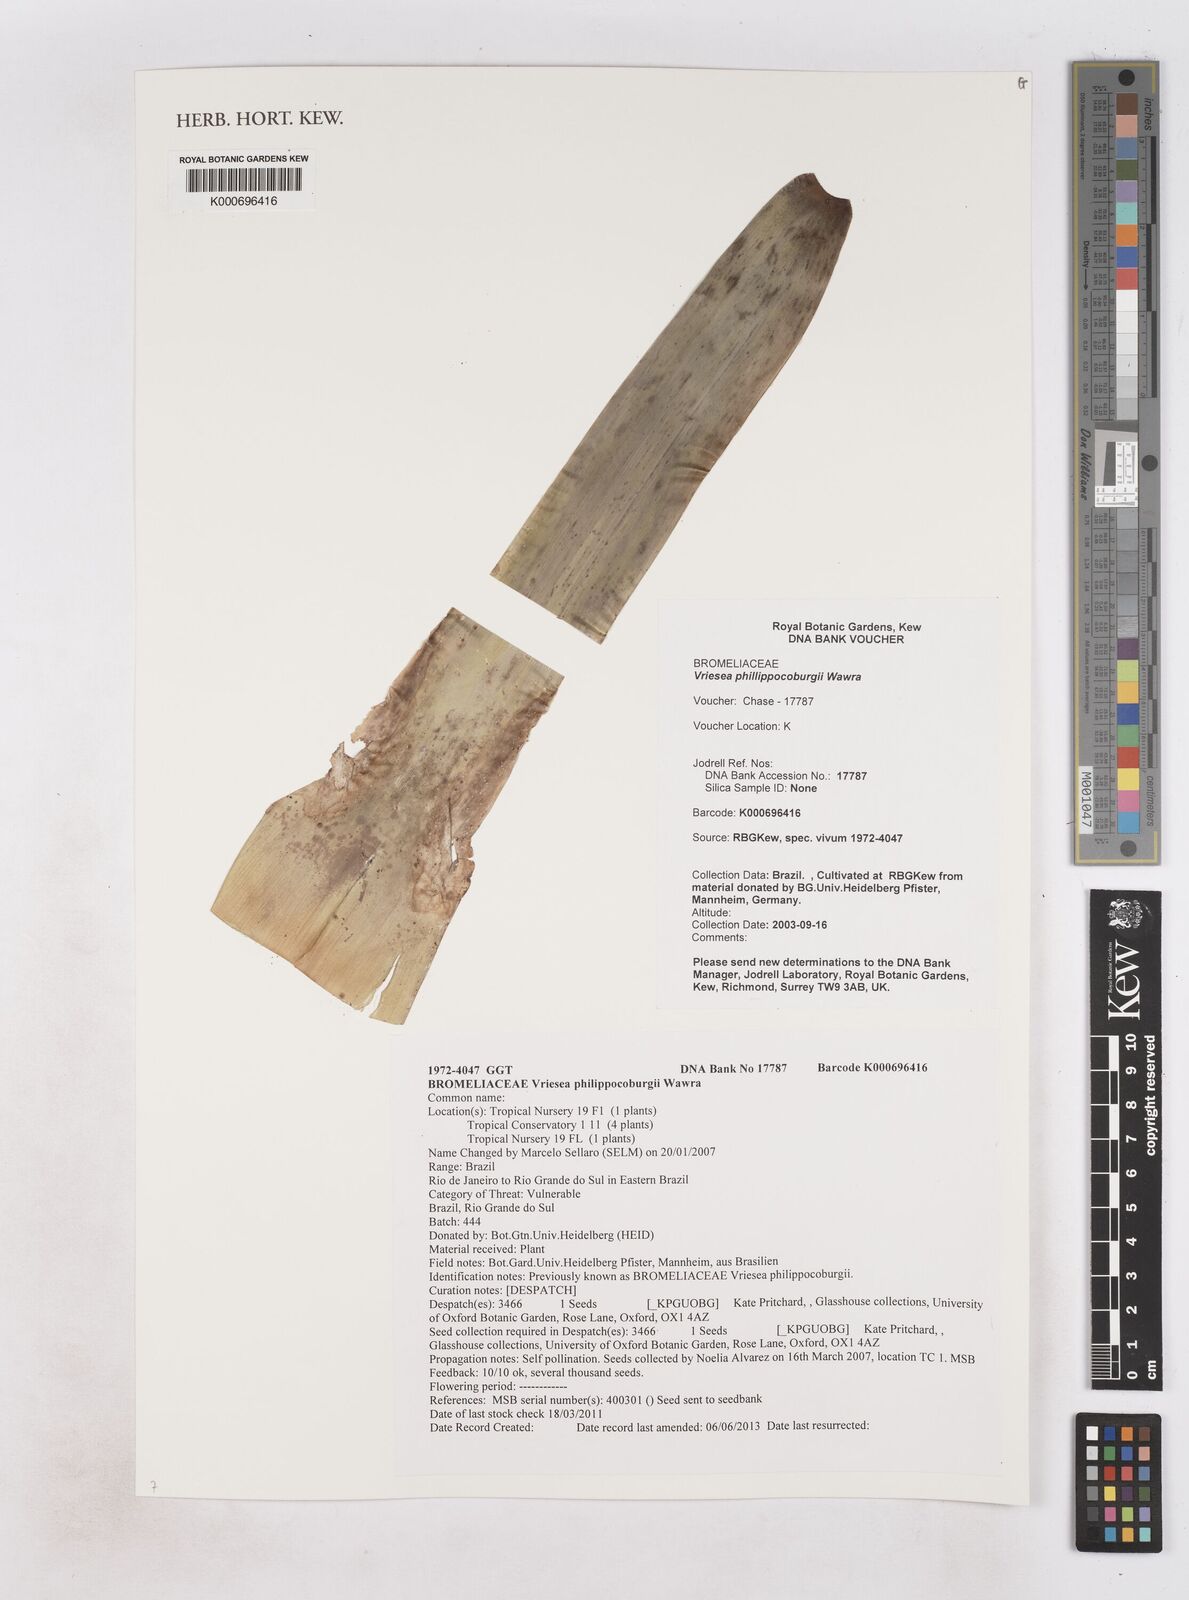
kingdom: Plantae
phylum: Tracheophyta
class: Liliopsida
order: Poales
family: Bromeliaceae
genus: Vriesea
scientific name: Vriesea philippocoburgi
